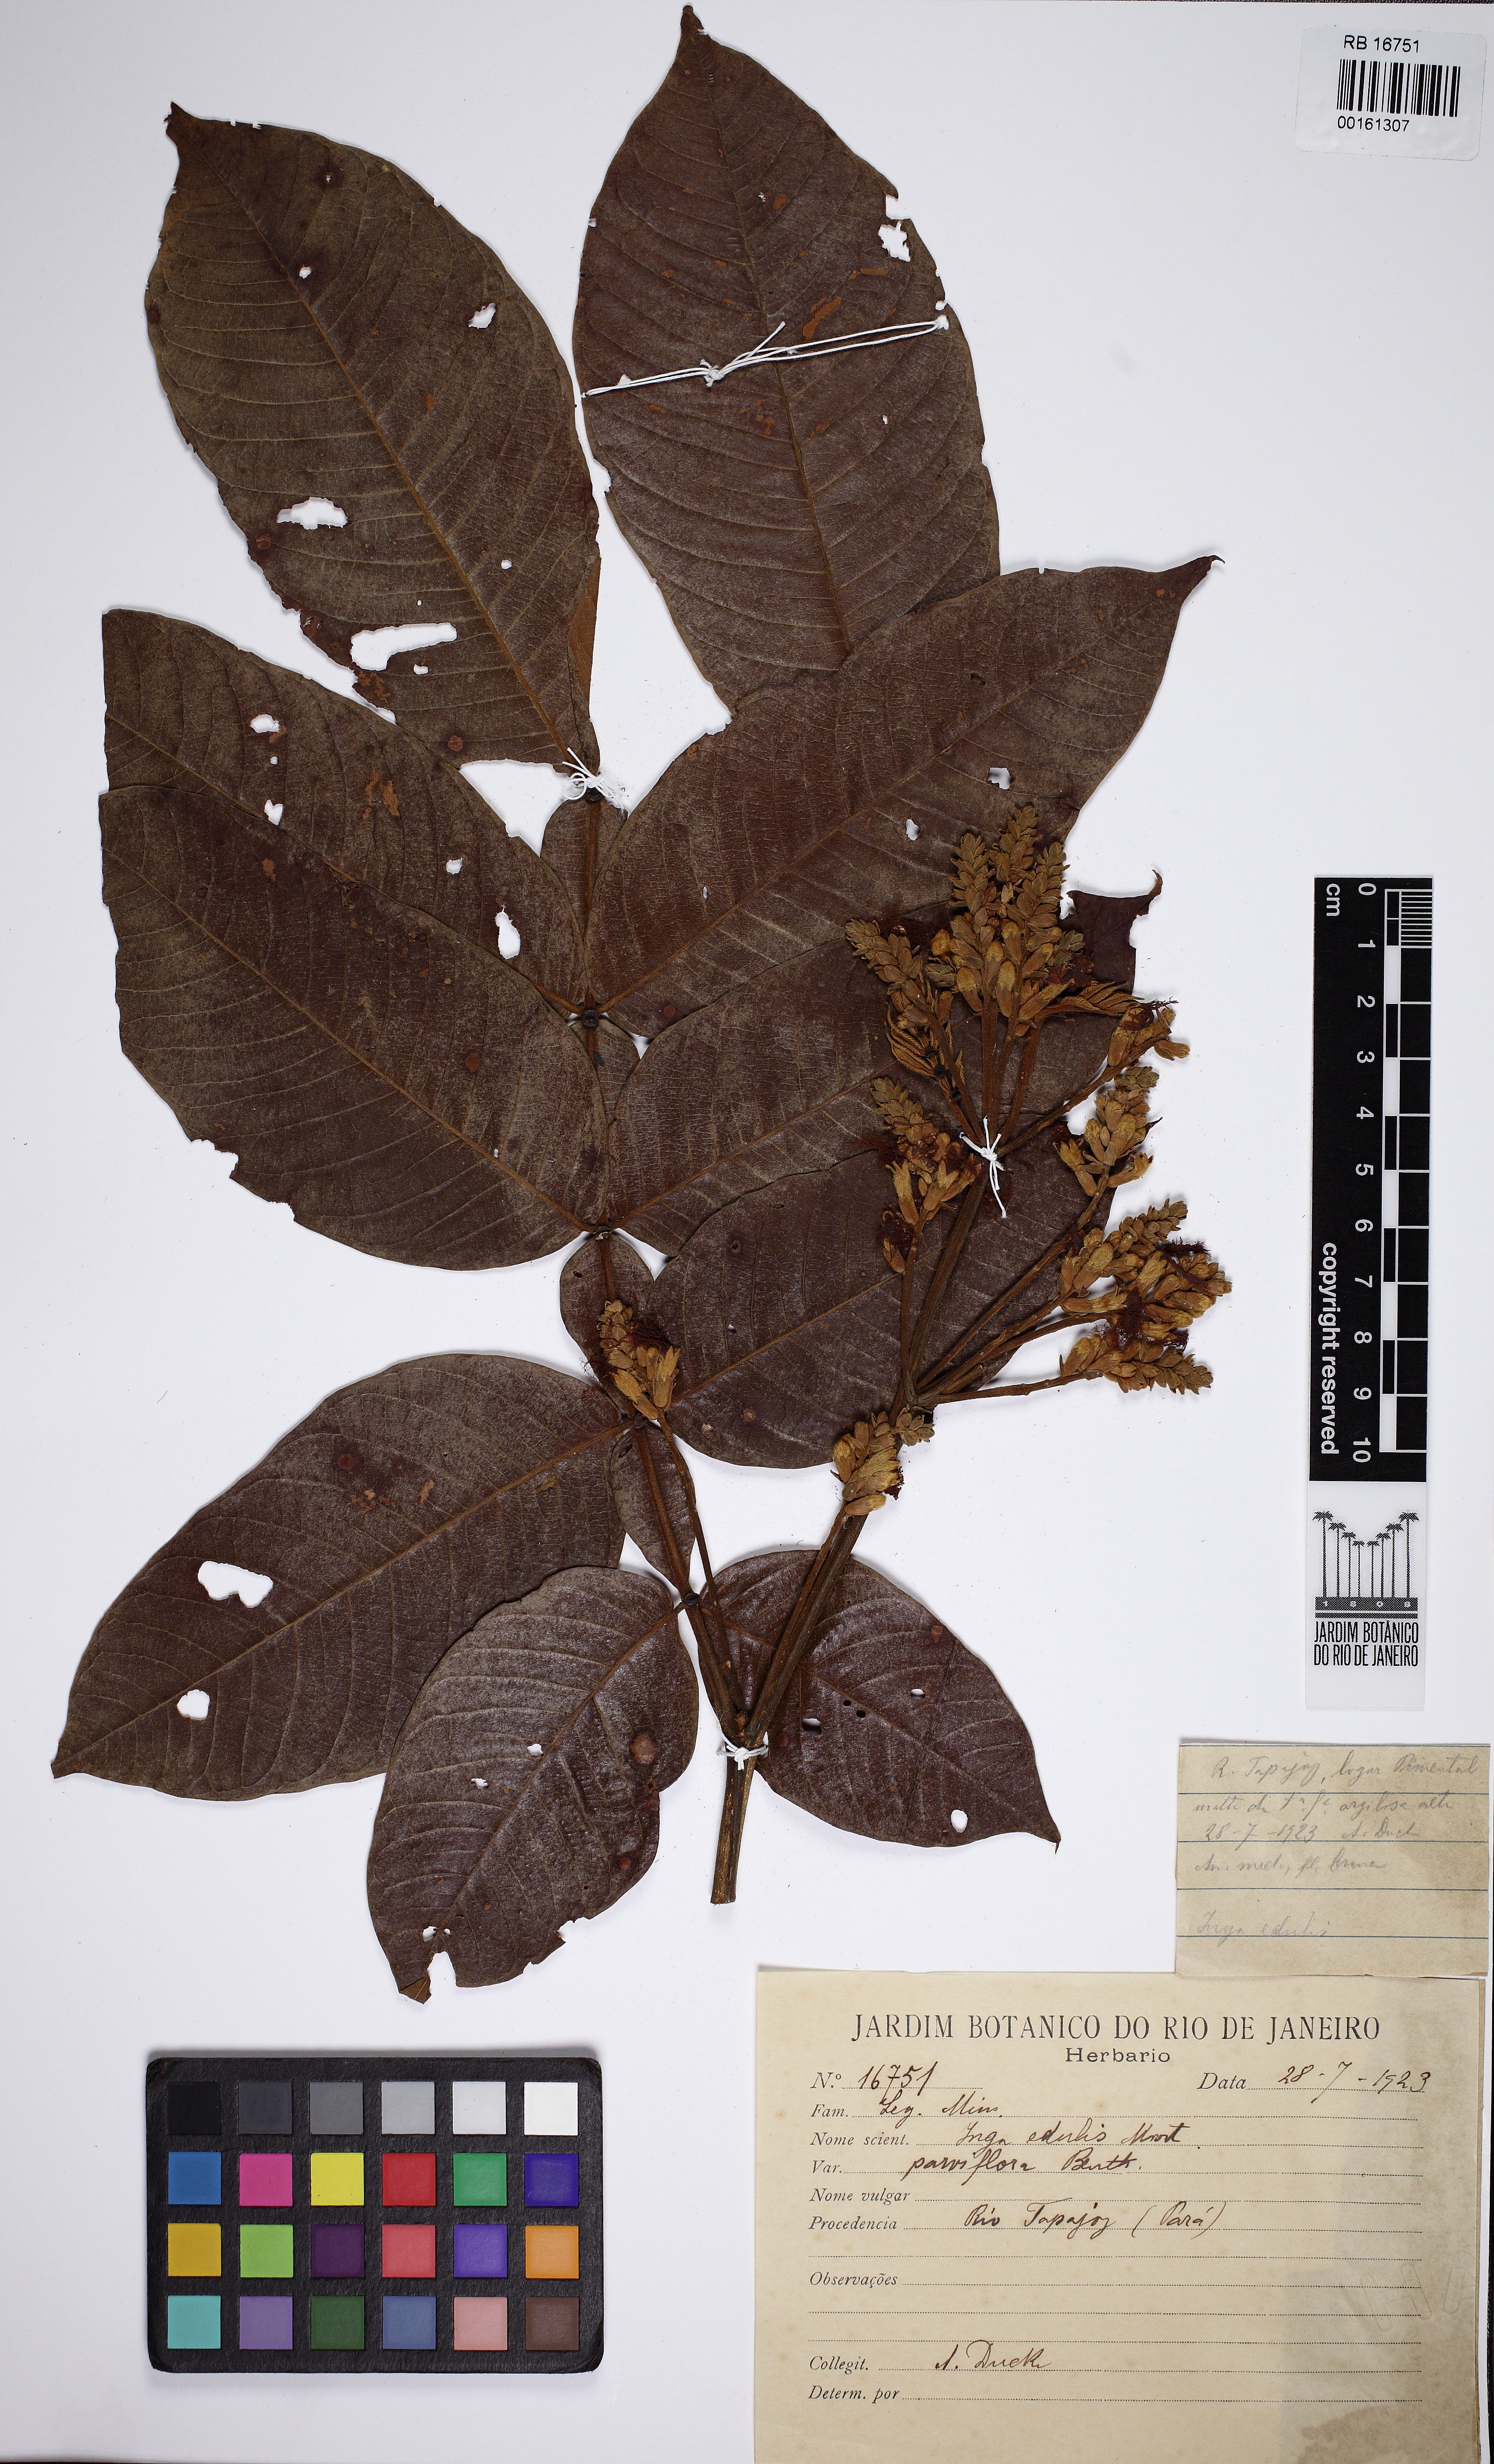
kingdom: Plantae
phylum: Tracheophyta
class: Magnoliopsida
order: Fabales
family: Fabaceae
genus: Inga
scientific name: Inga edulis
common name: Ice cream bean
